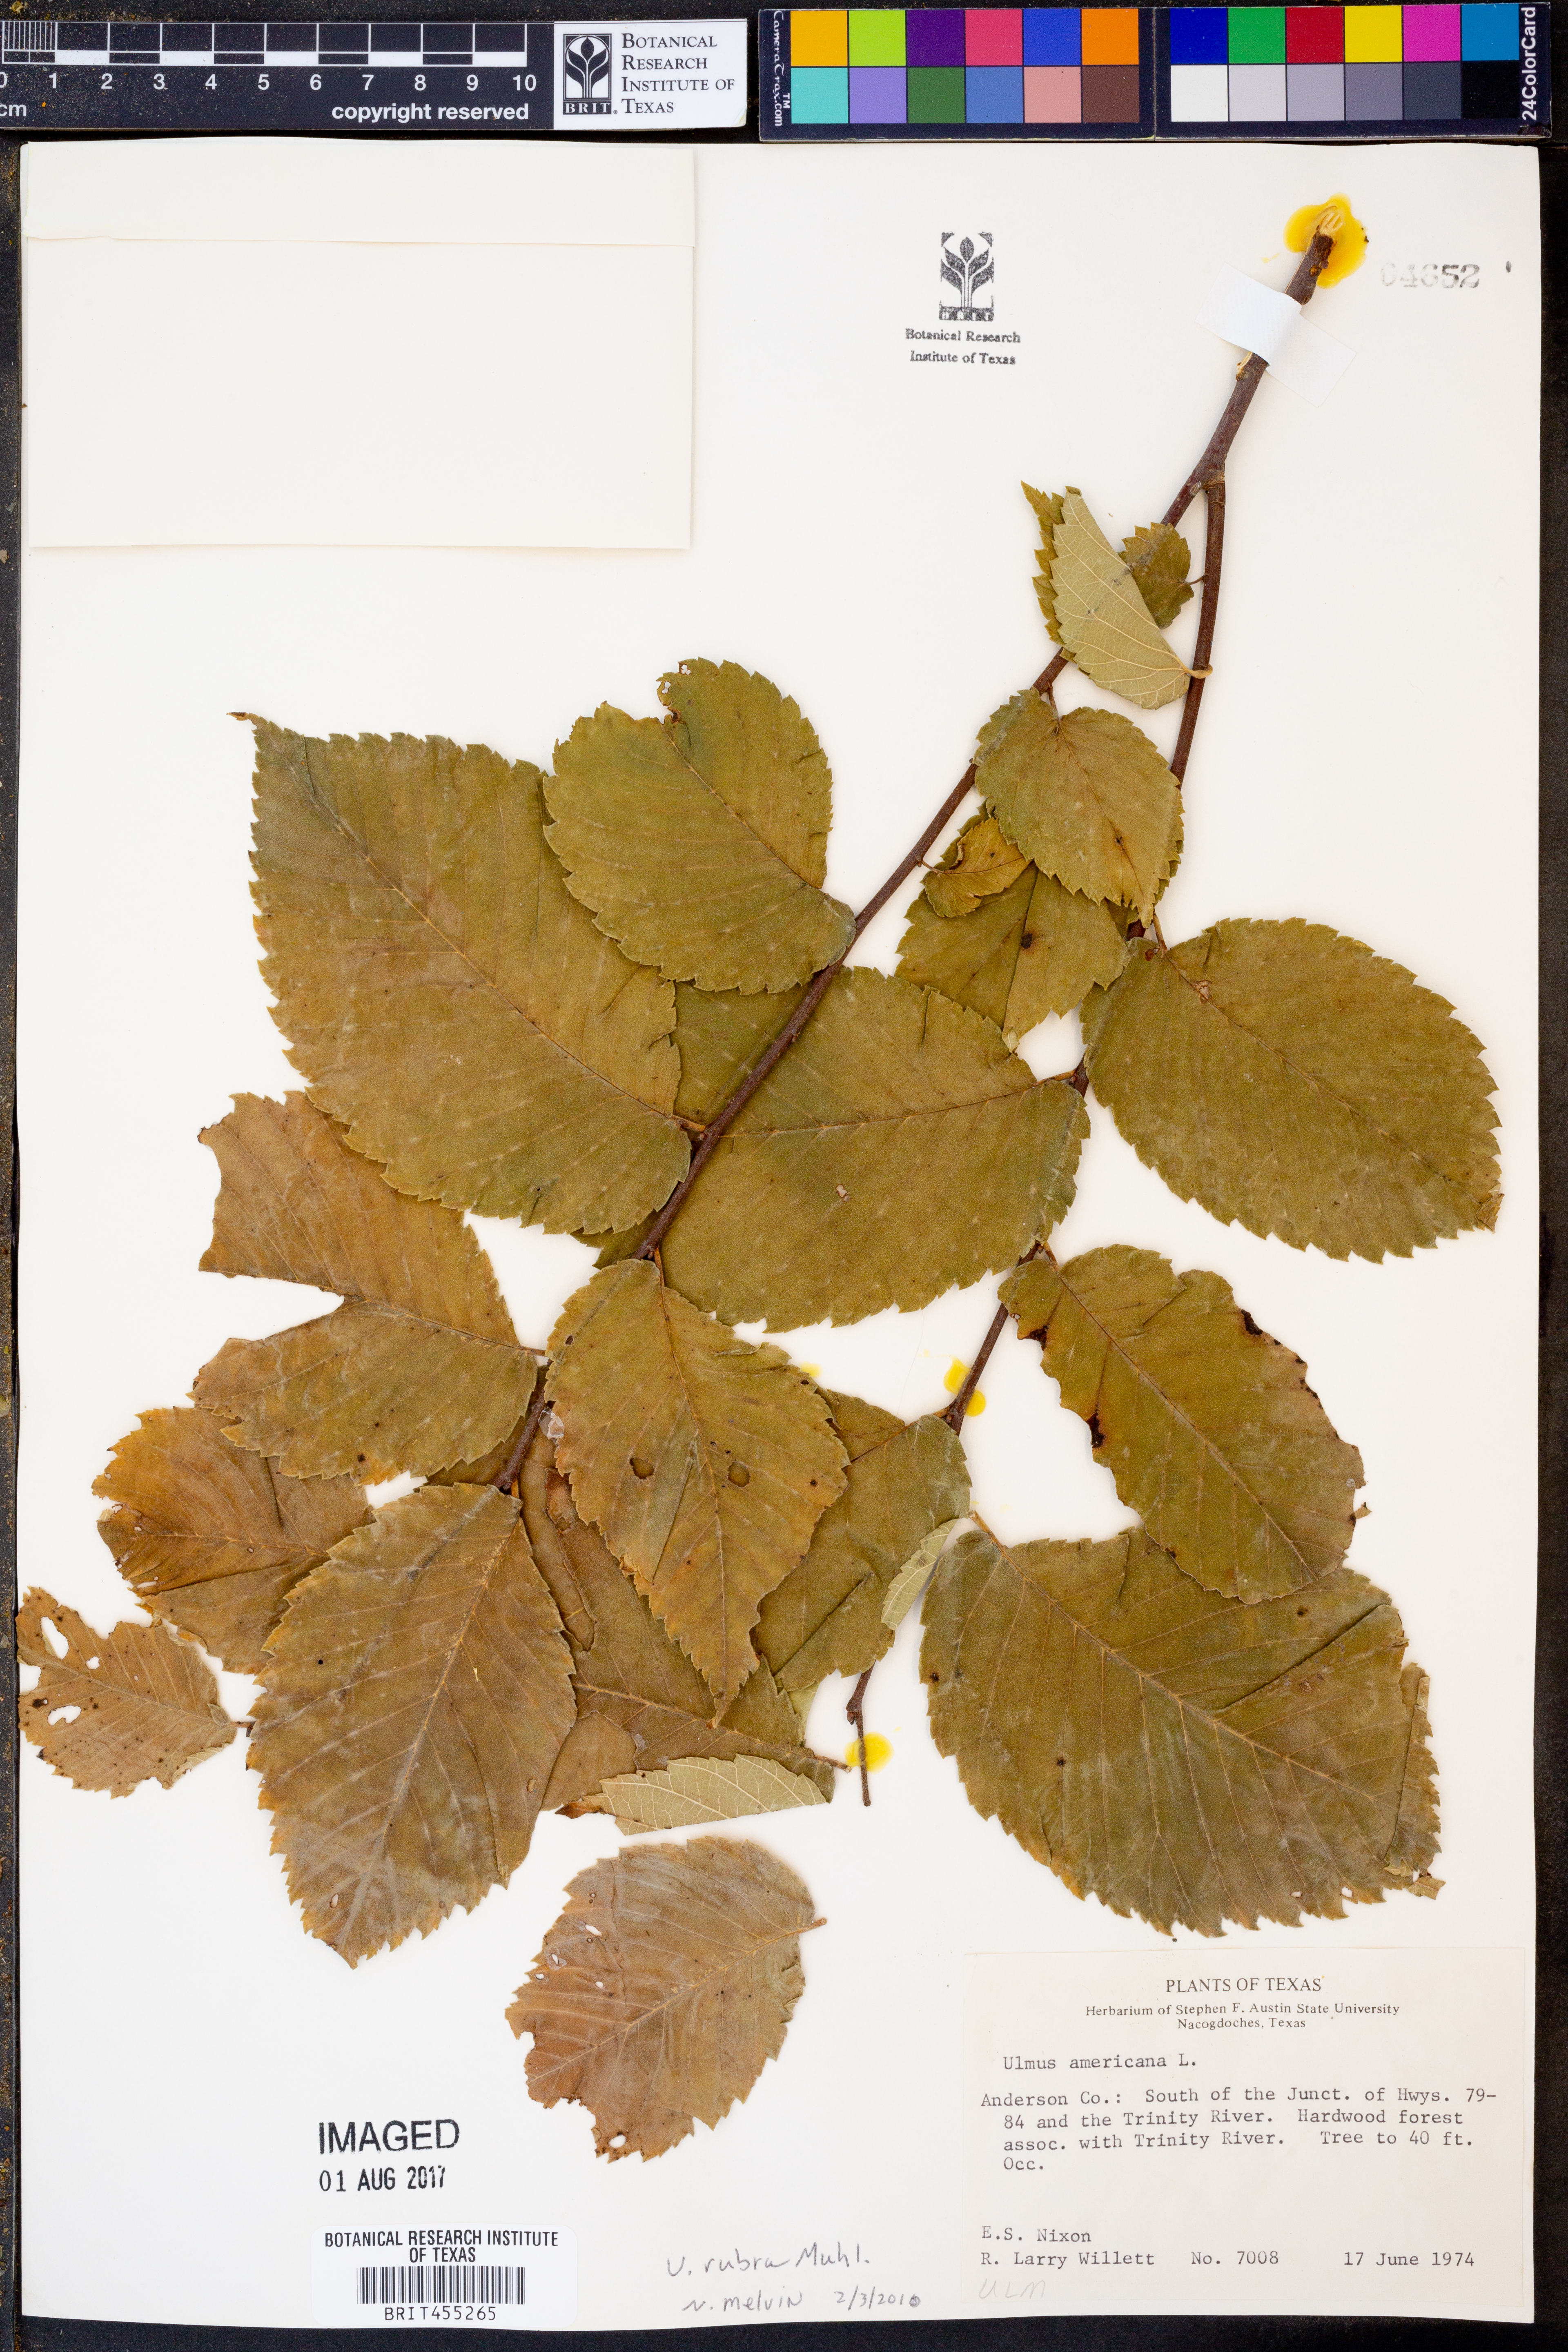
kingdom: Plantae
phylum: Tracheophyta
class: Magnoliopsida
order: Rosales
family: Ulmaceae
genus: Ulmus
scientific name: Ulmus rubra
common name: Slippery elm
